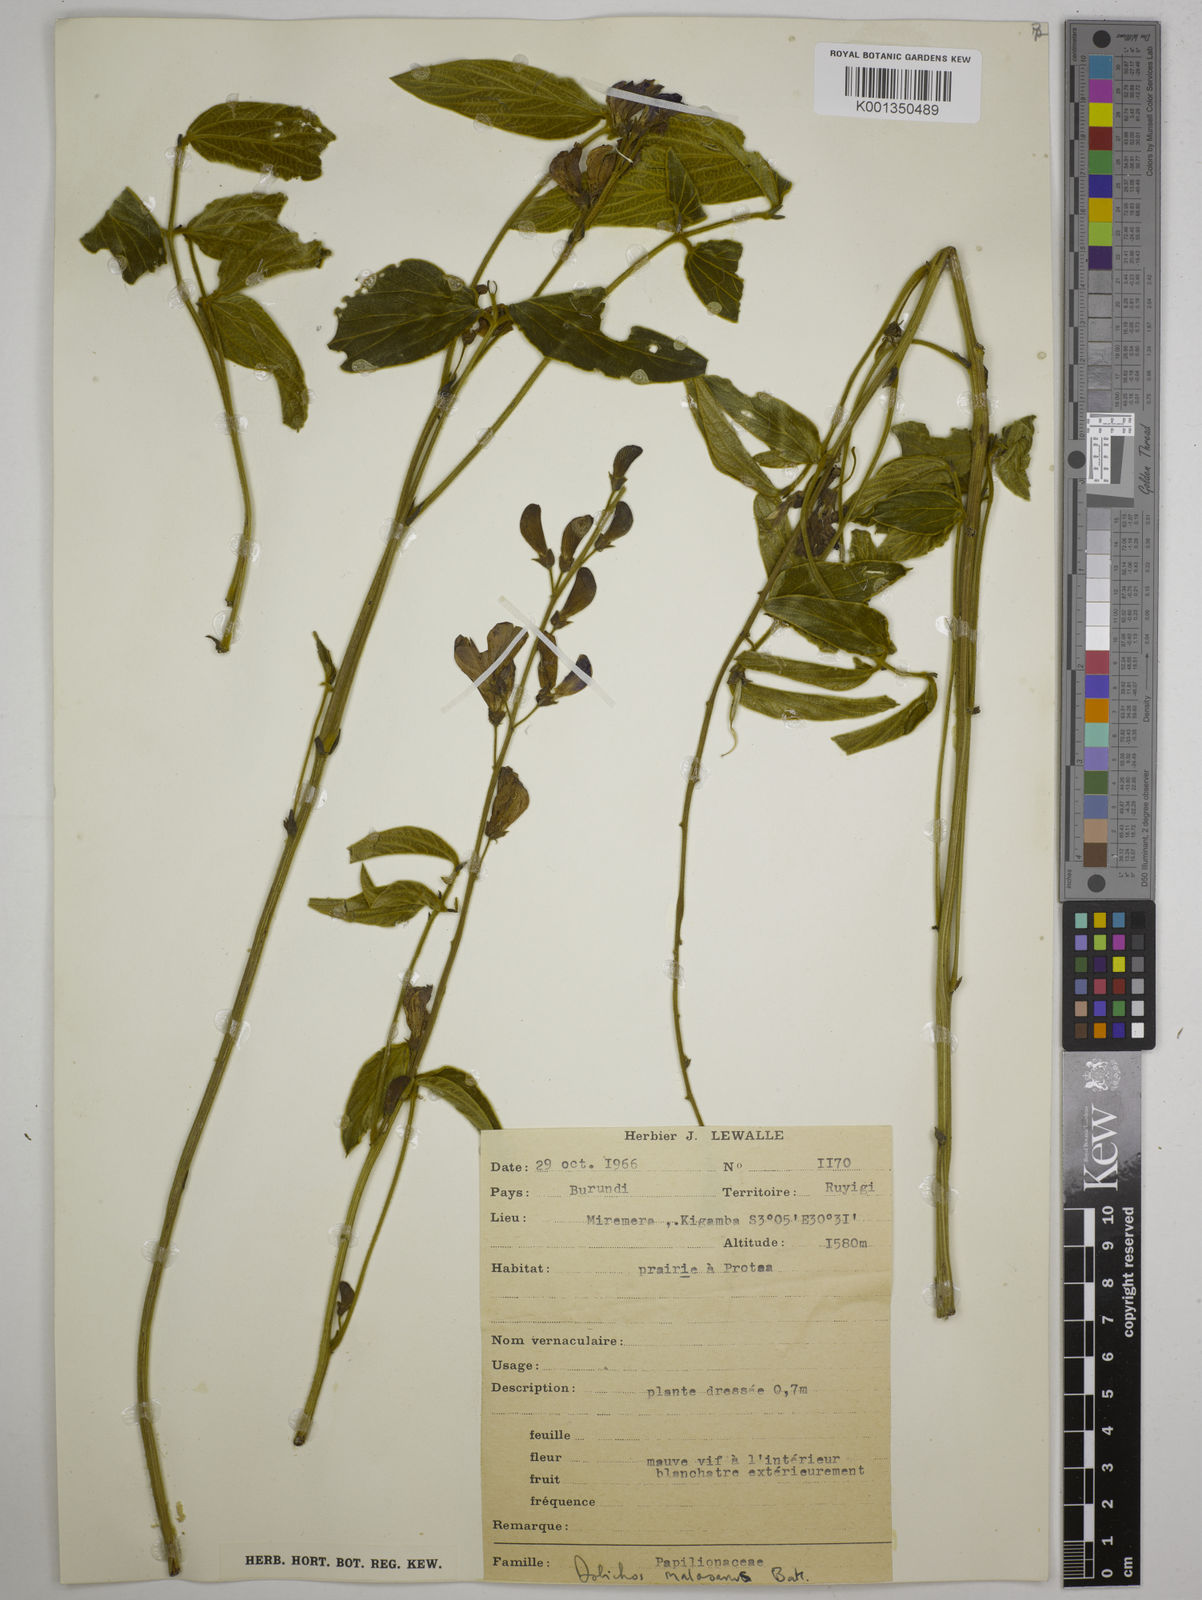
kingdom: Plantae
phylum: Tracheophyta
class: Magnoliopsida
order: Fabales
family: Fabaceae
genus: Dolichos
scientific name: Dolichos kilimandscharicus
